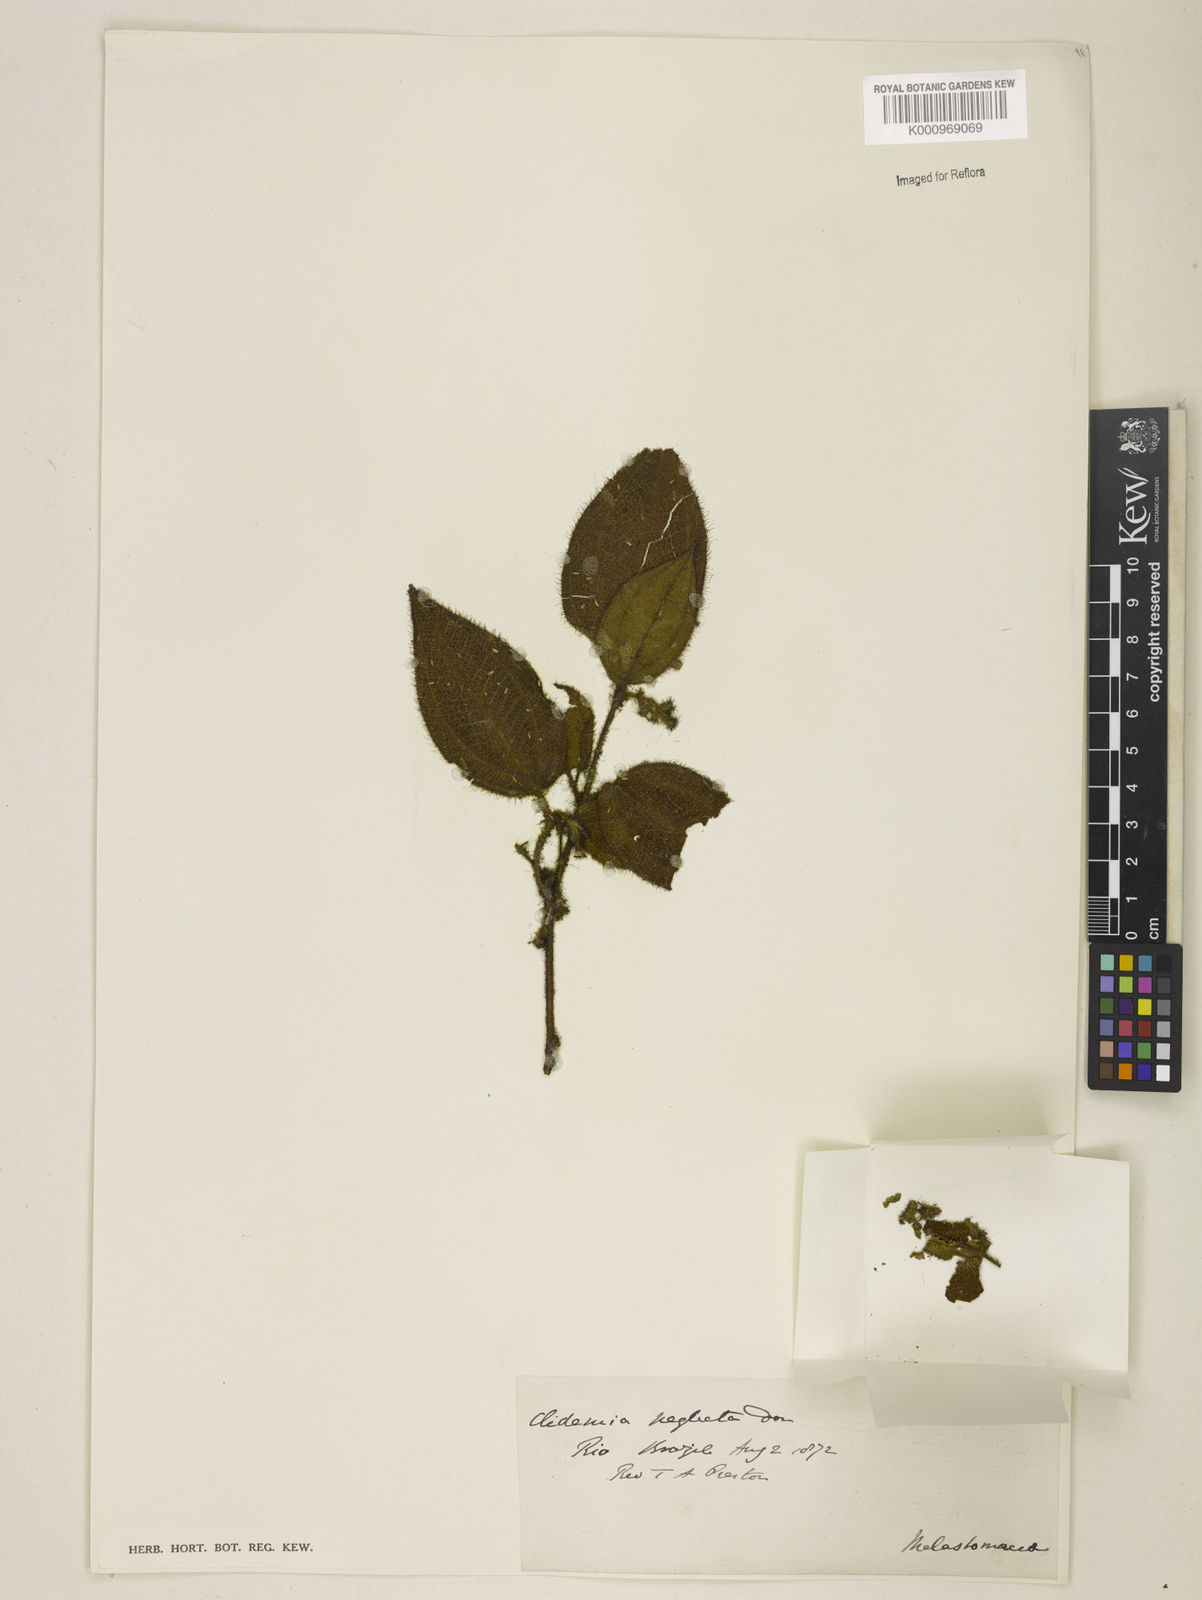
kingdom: Plantae
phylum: Tracheophyta
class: Magnoliopsida
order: Myrtales
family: Melastomataceae
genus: Miconia
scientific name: Miconia dependens
